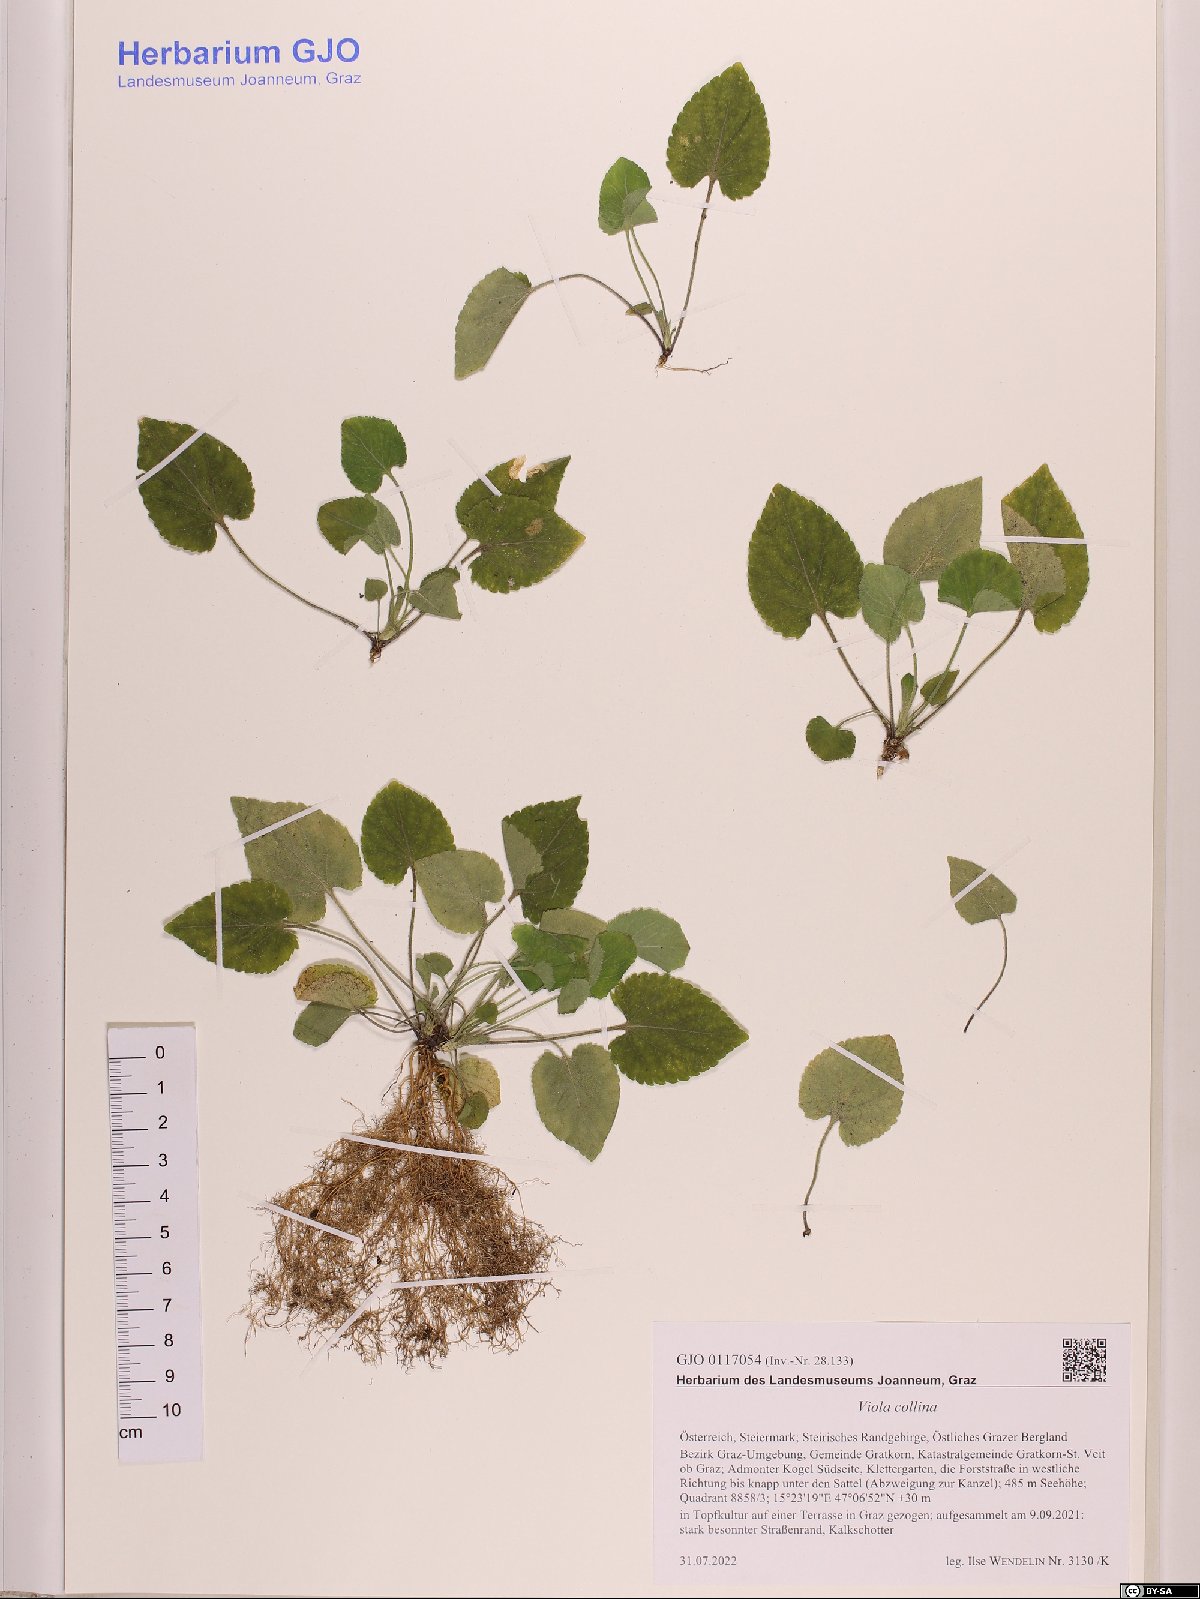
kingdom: Plantae
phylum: Tracheophyta
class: Magnoliopsida
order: Malpighiales
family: Violaceae
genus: Viola
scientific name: Viola collina
